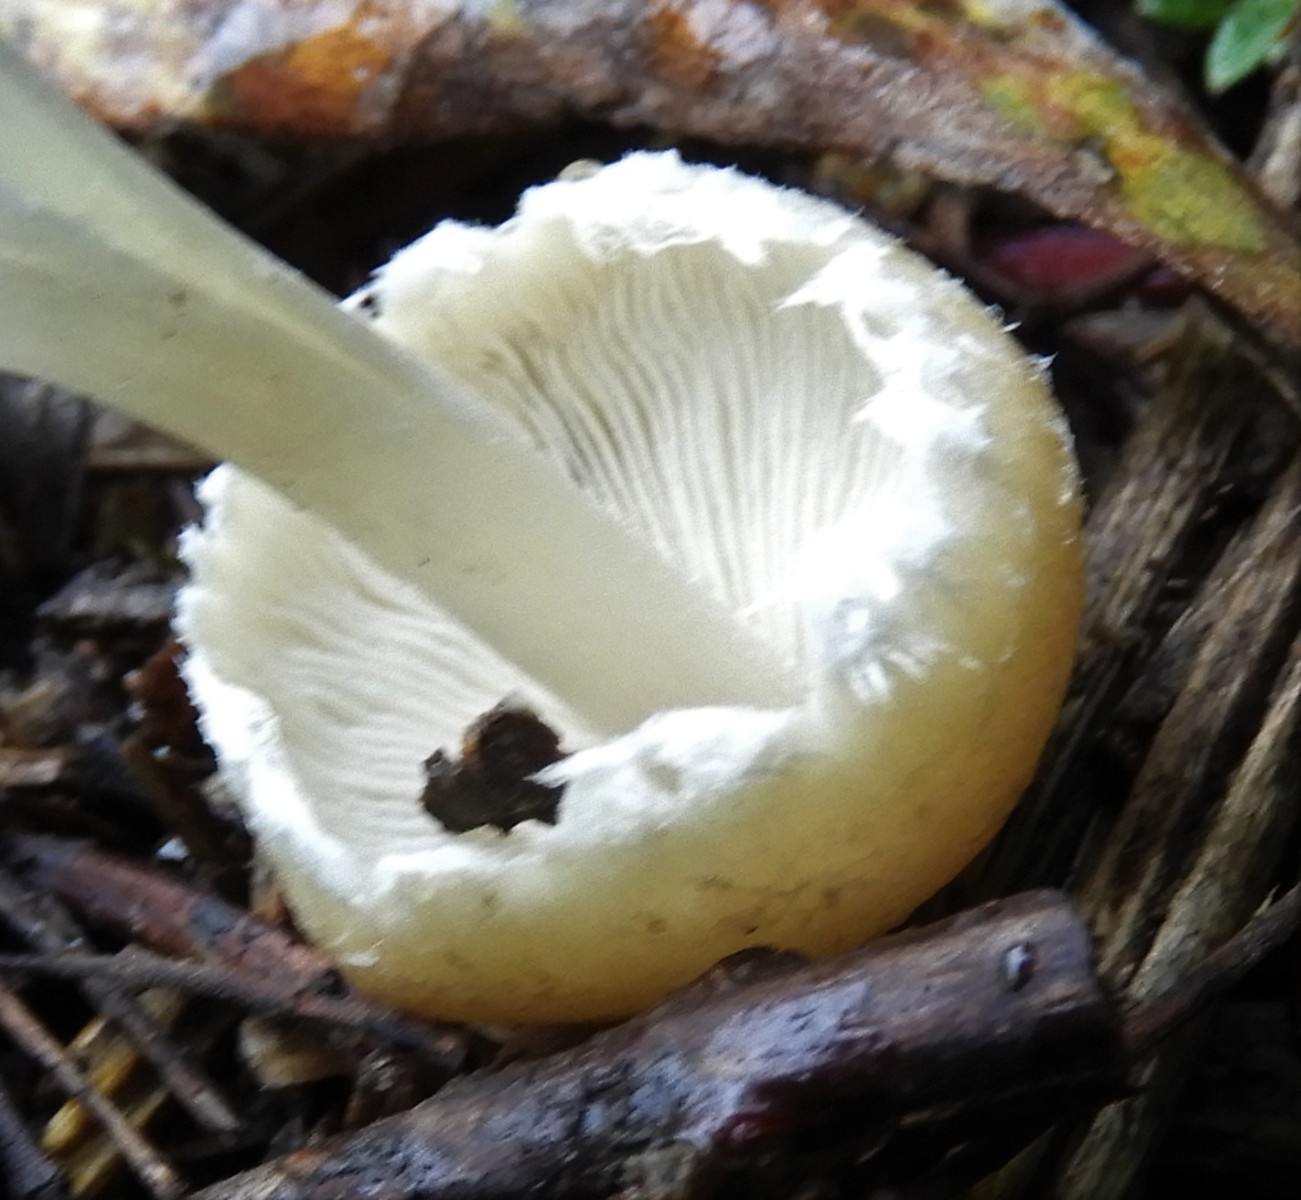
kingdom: Fungi
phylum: Basidiomycota
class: Agaricomycetes
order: Agaricales
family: Psathyrellaceae
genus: Candolleomyces
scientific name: Candolleomyces candolleanus
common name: Candolles mørkhat
